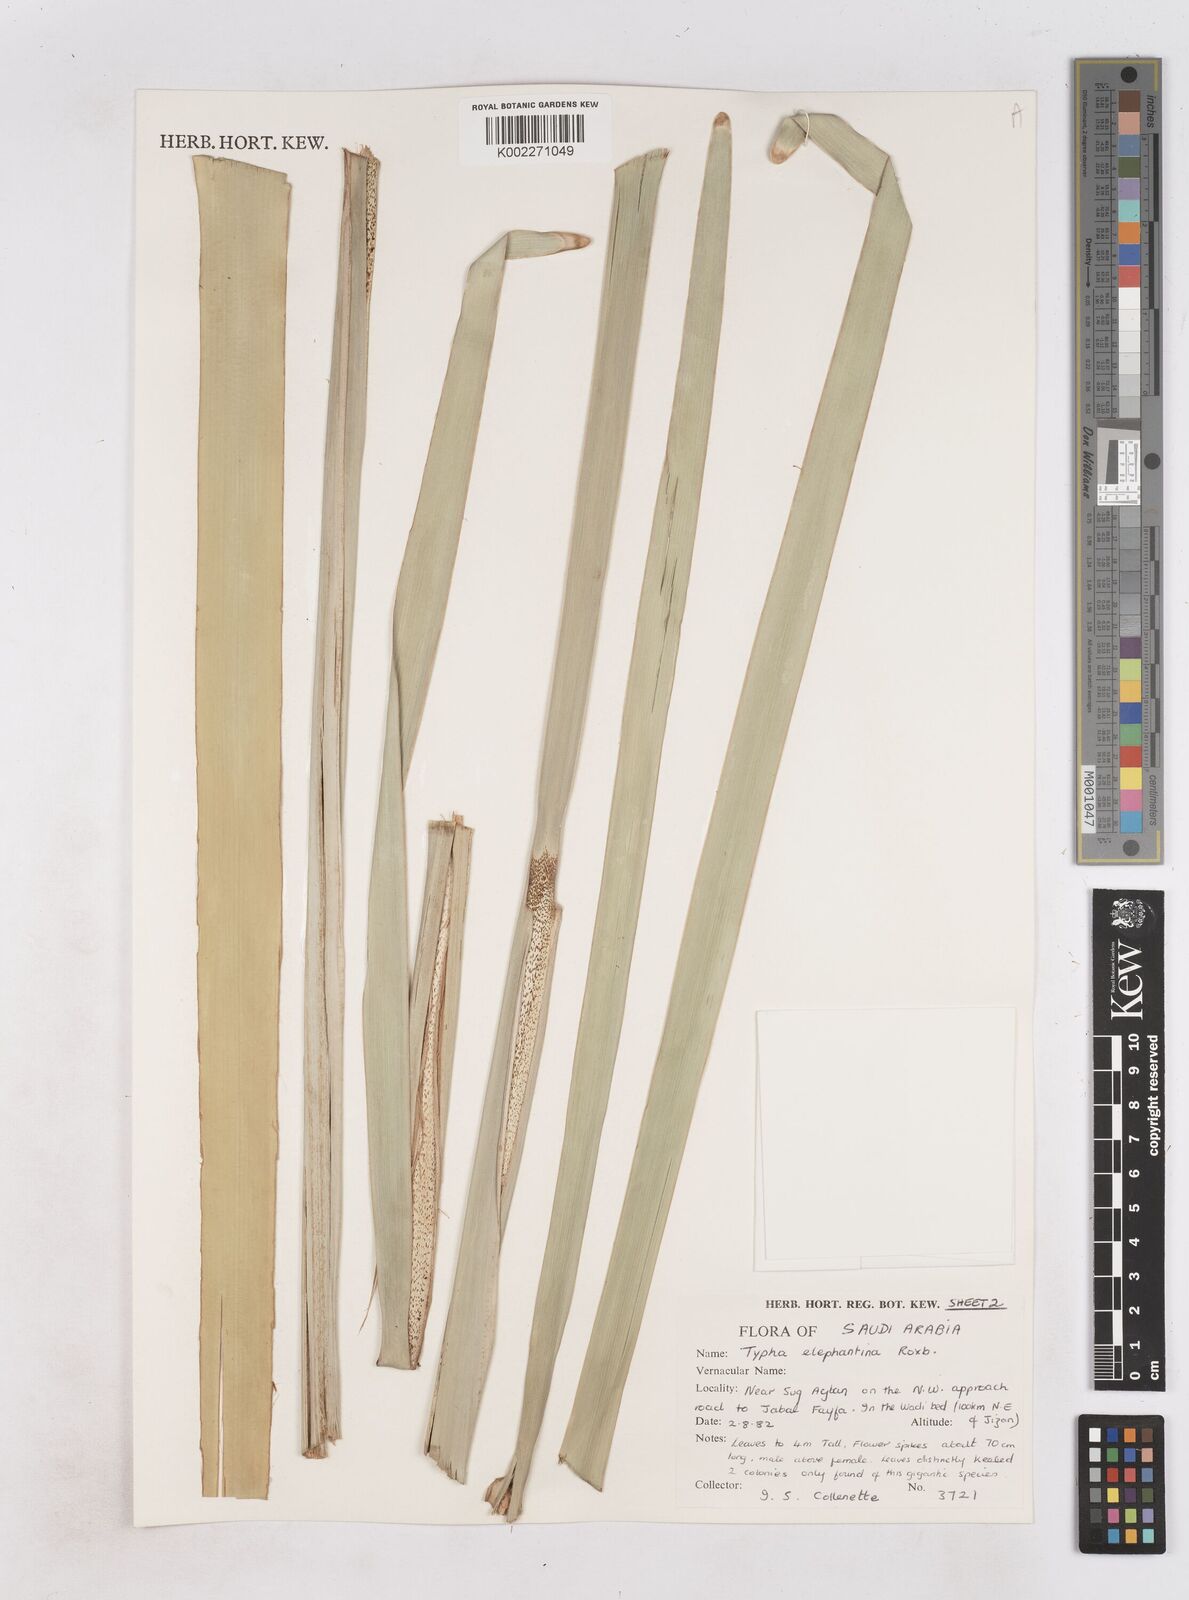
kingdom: Plantae
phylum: Tracheophyta
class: Liliopsida
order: Poales
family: Typhaceae
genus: Typha
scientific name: Typha elephantina
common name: Indian reed-grass
